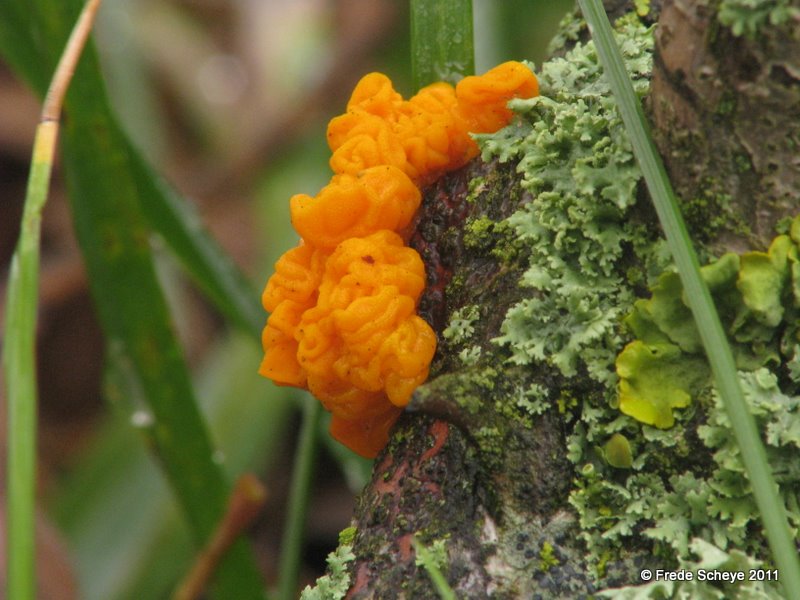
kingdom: Fungi
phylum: Basidiomycota
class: Tremellomycetes
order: Tremellales
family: Tremellaceae
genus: Tremella
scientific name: Tremella mesenterica
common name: gul bævresvamp
